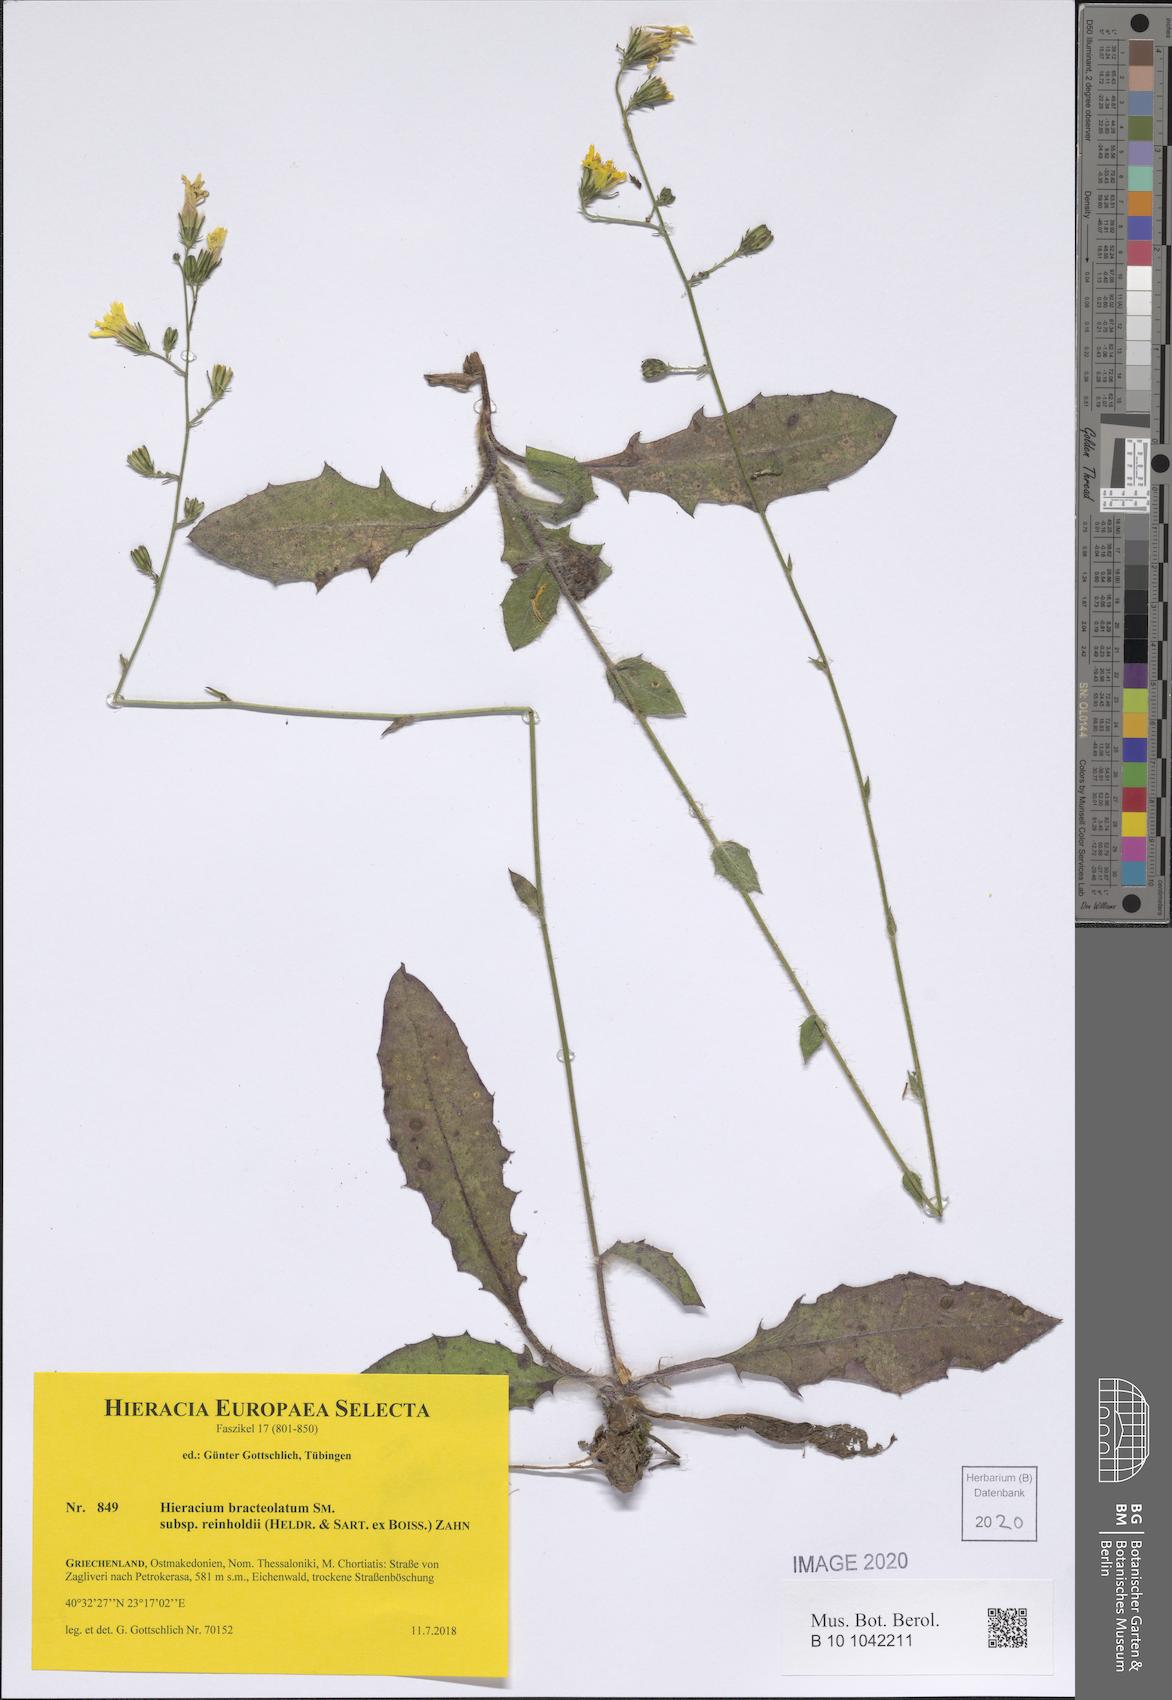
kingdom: Plantae
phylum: Tracheophyta
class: Magnoliopsida
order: Asterales
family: Asteraceae
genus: Hieracium
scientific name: Hieracium bracteolatum
